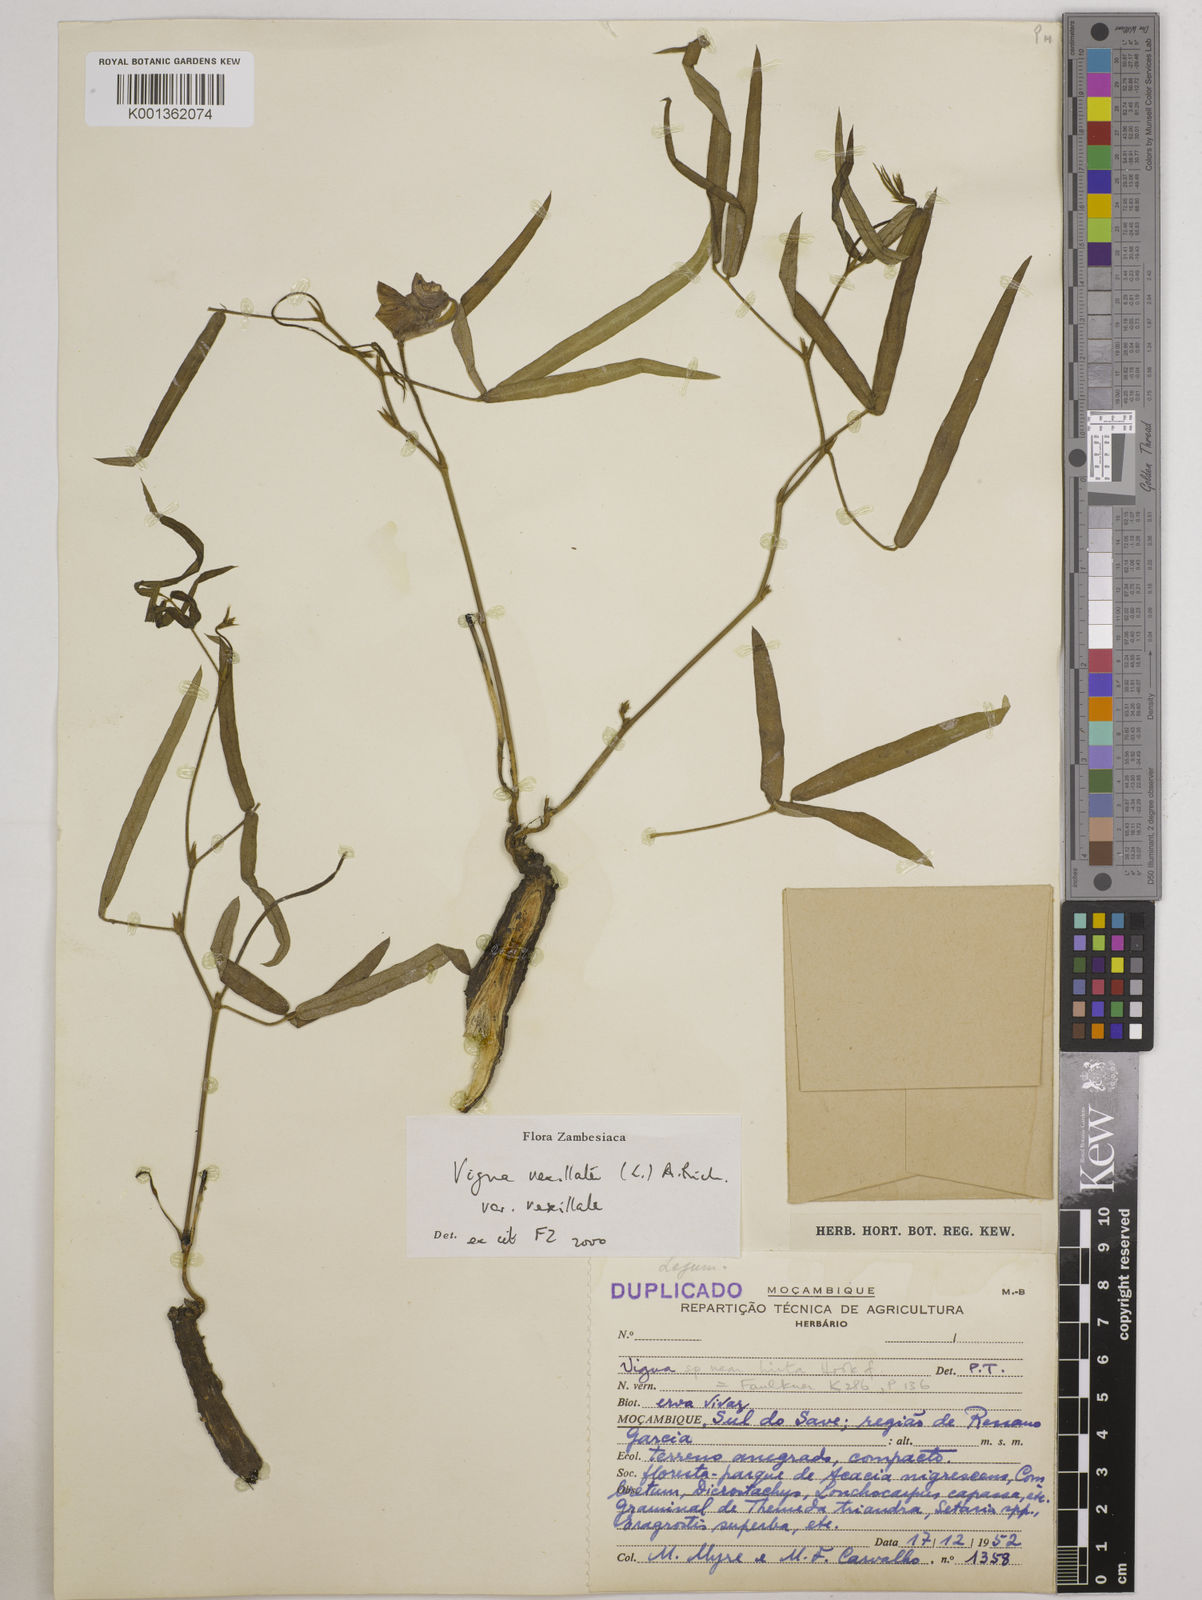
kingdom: Plantae
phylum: Tracheophyta
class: Magnoliopsida
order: Fabales
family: Fabaceae
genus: Vigna
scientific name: Vigna vexillata
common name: Zombi pea
